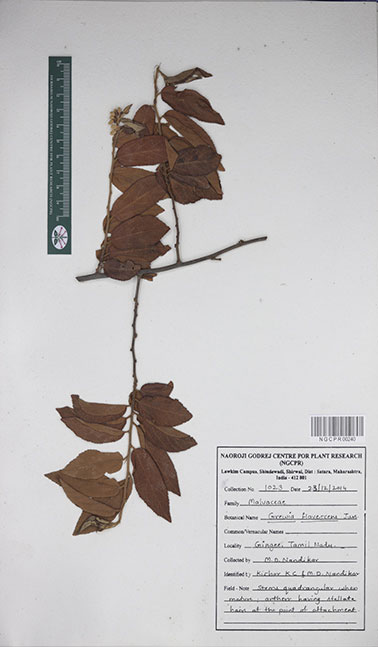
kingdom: Plantae
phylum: Tracheophyta
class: Magnoliopsida
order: Malvales
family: Malvaceae
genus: Grewia
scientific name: Grewia flavescens
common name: Sandpaper raisin
